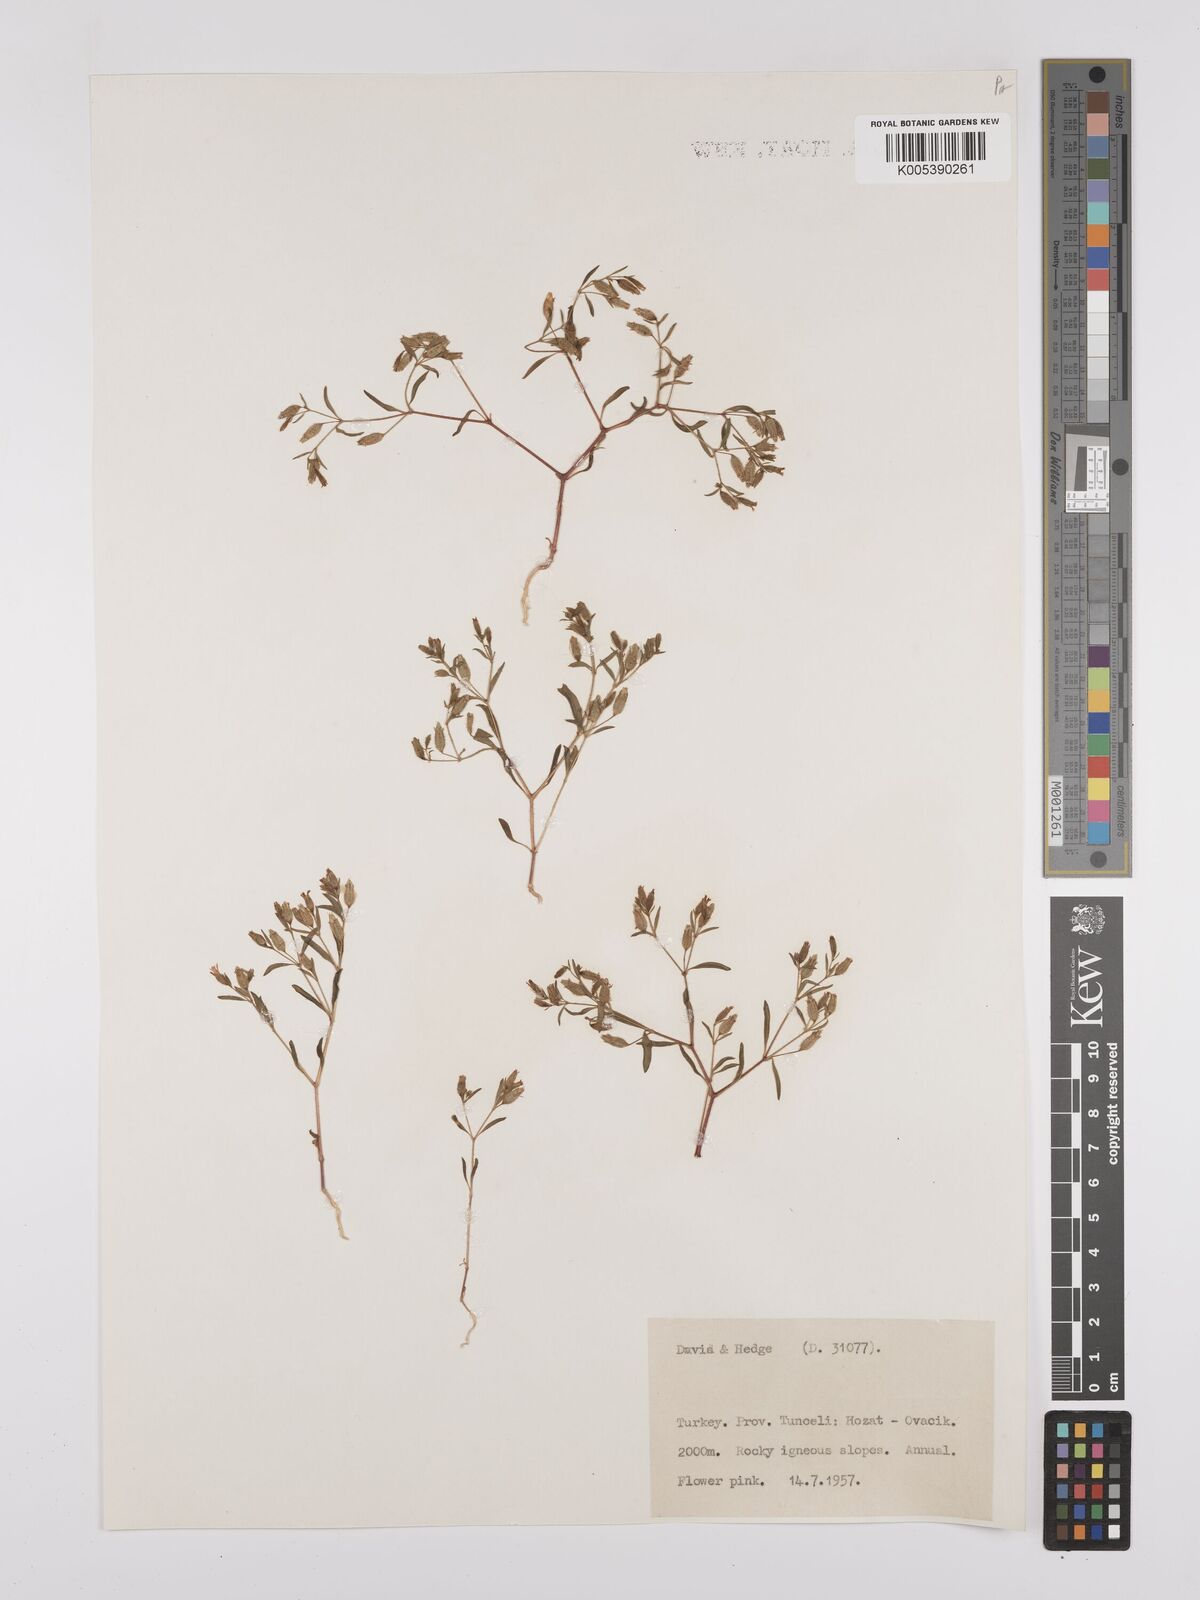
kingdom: Plantae
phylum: Tracheophyta
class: Magnoliopsida
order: Caryophyllales
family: Caryophyllaceae
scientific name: Caryophyllaceae
